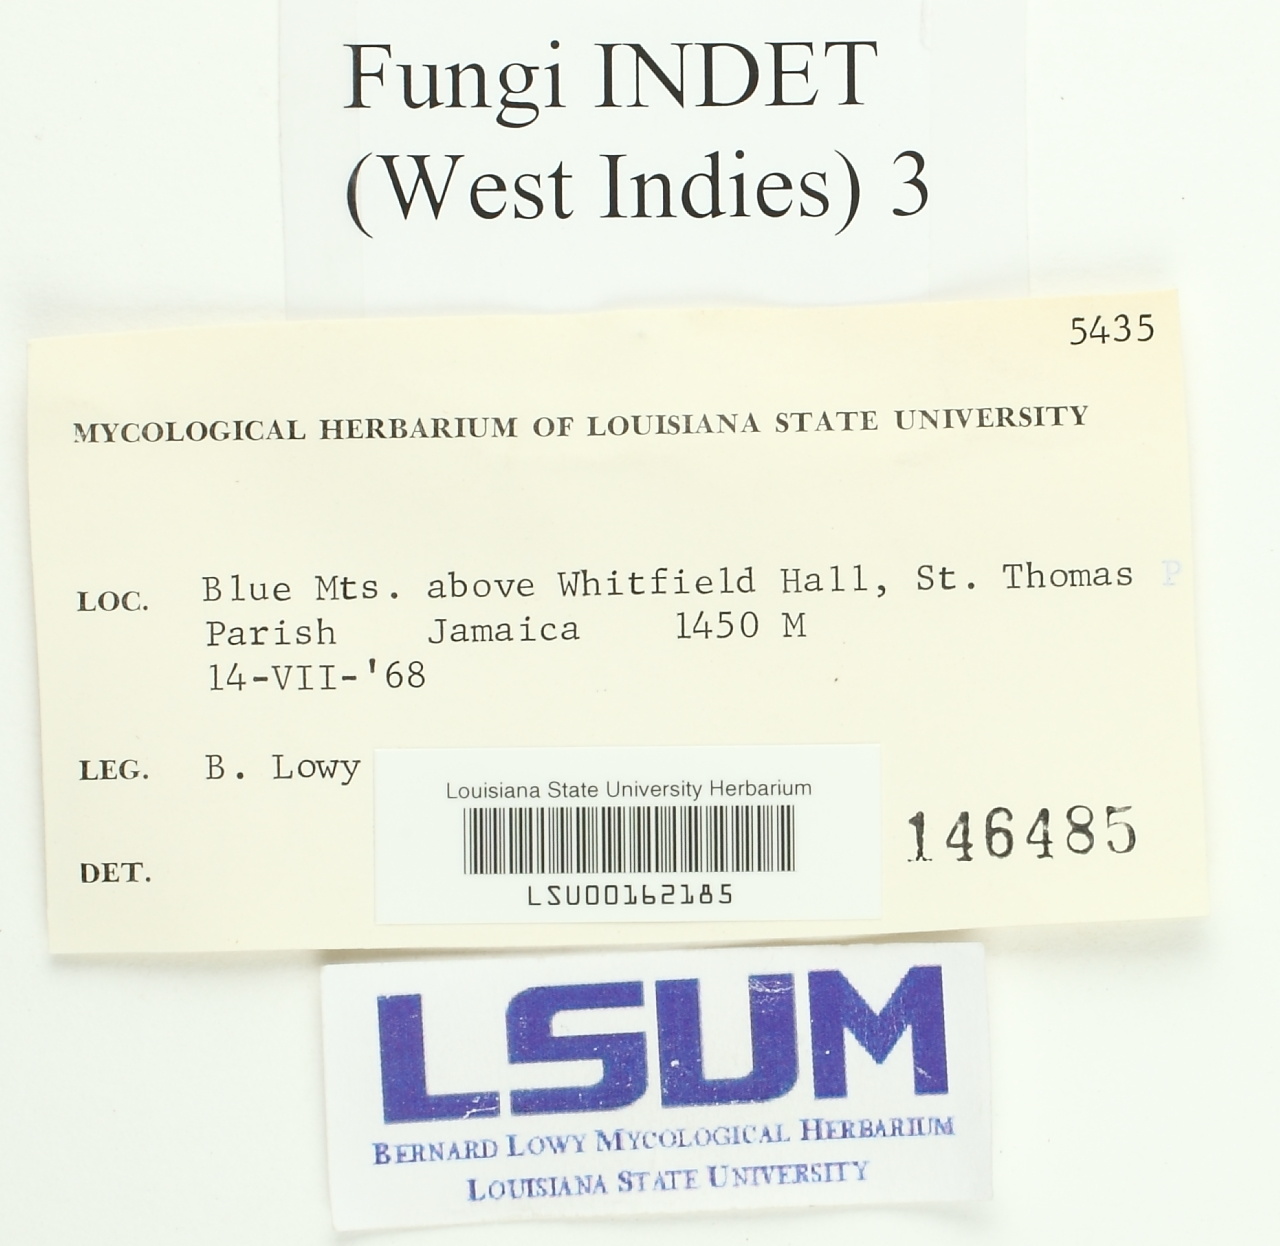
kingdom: Fungi
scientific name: Fungi
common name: Fungi
